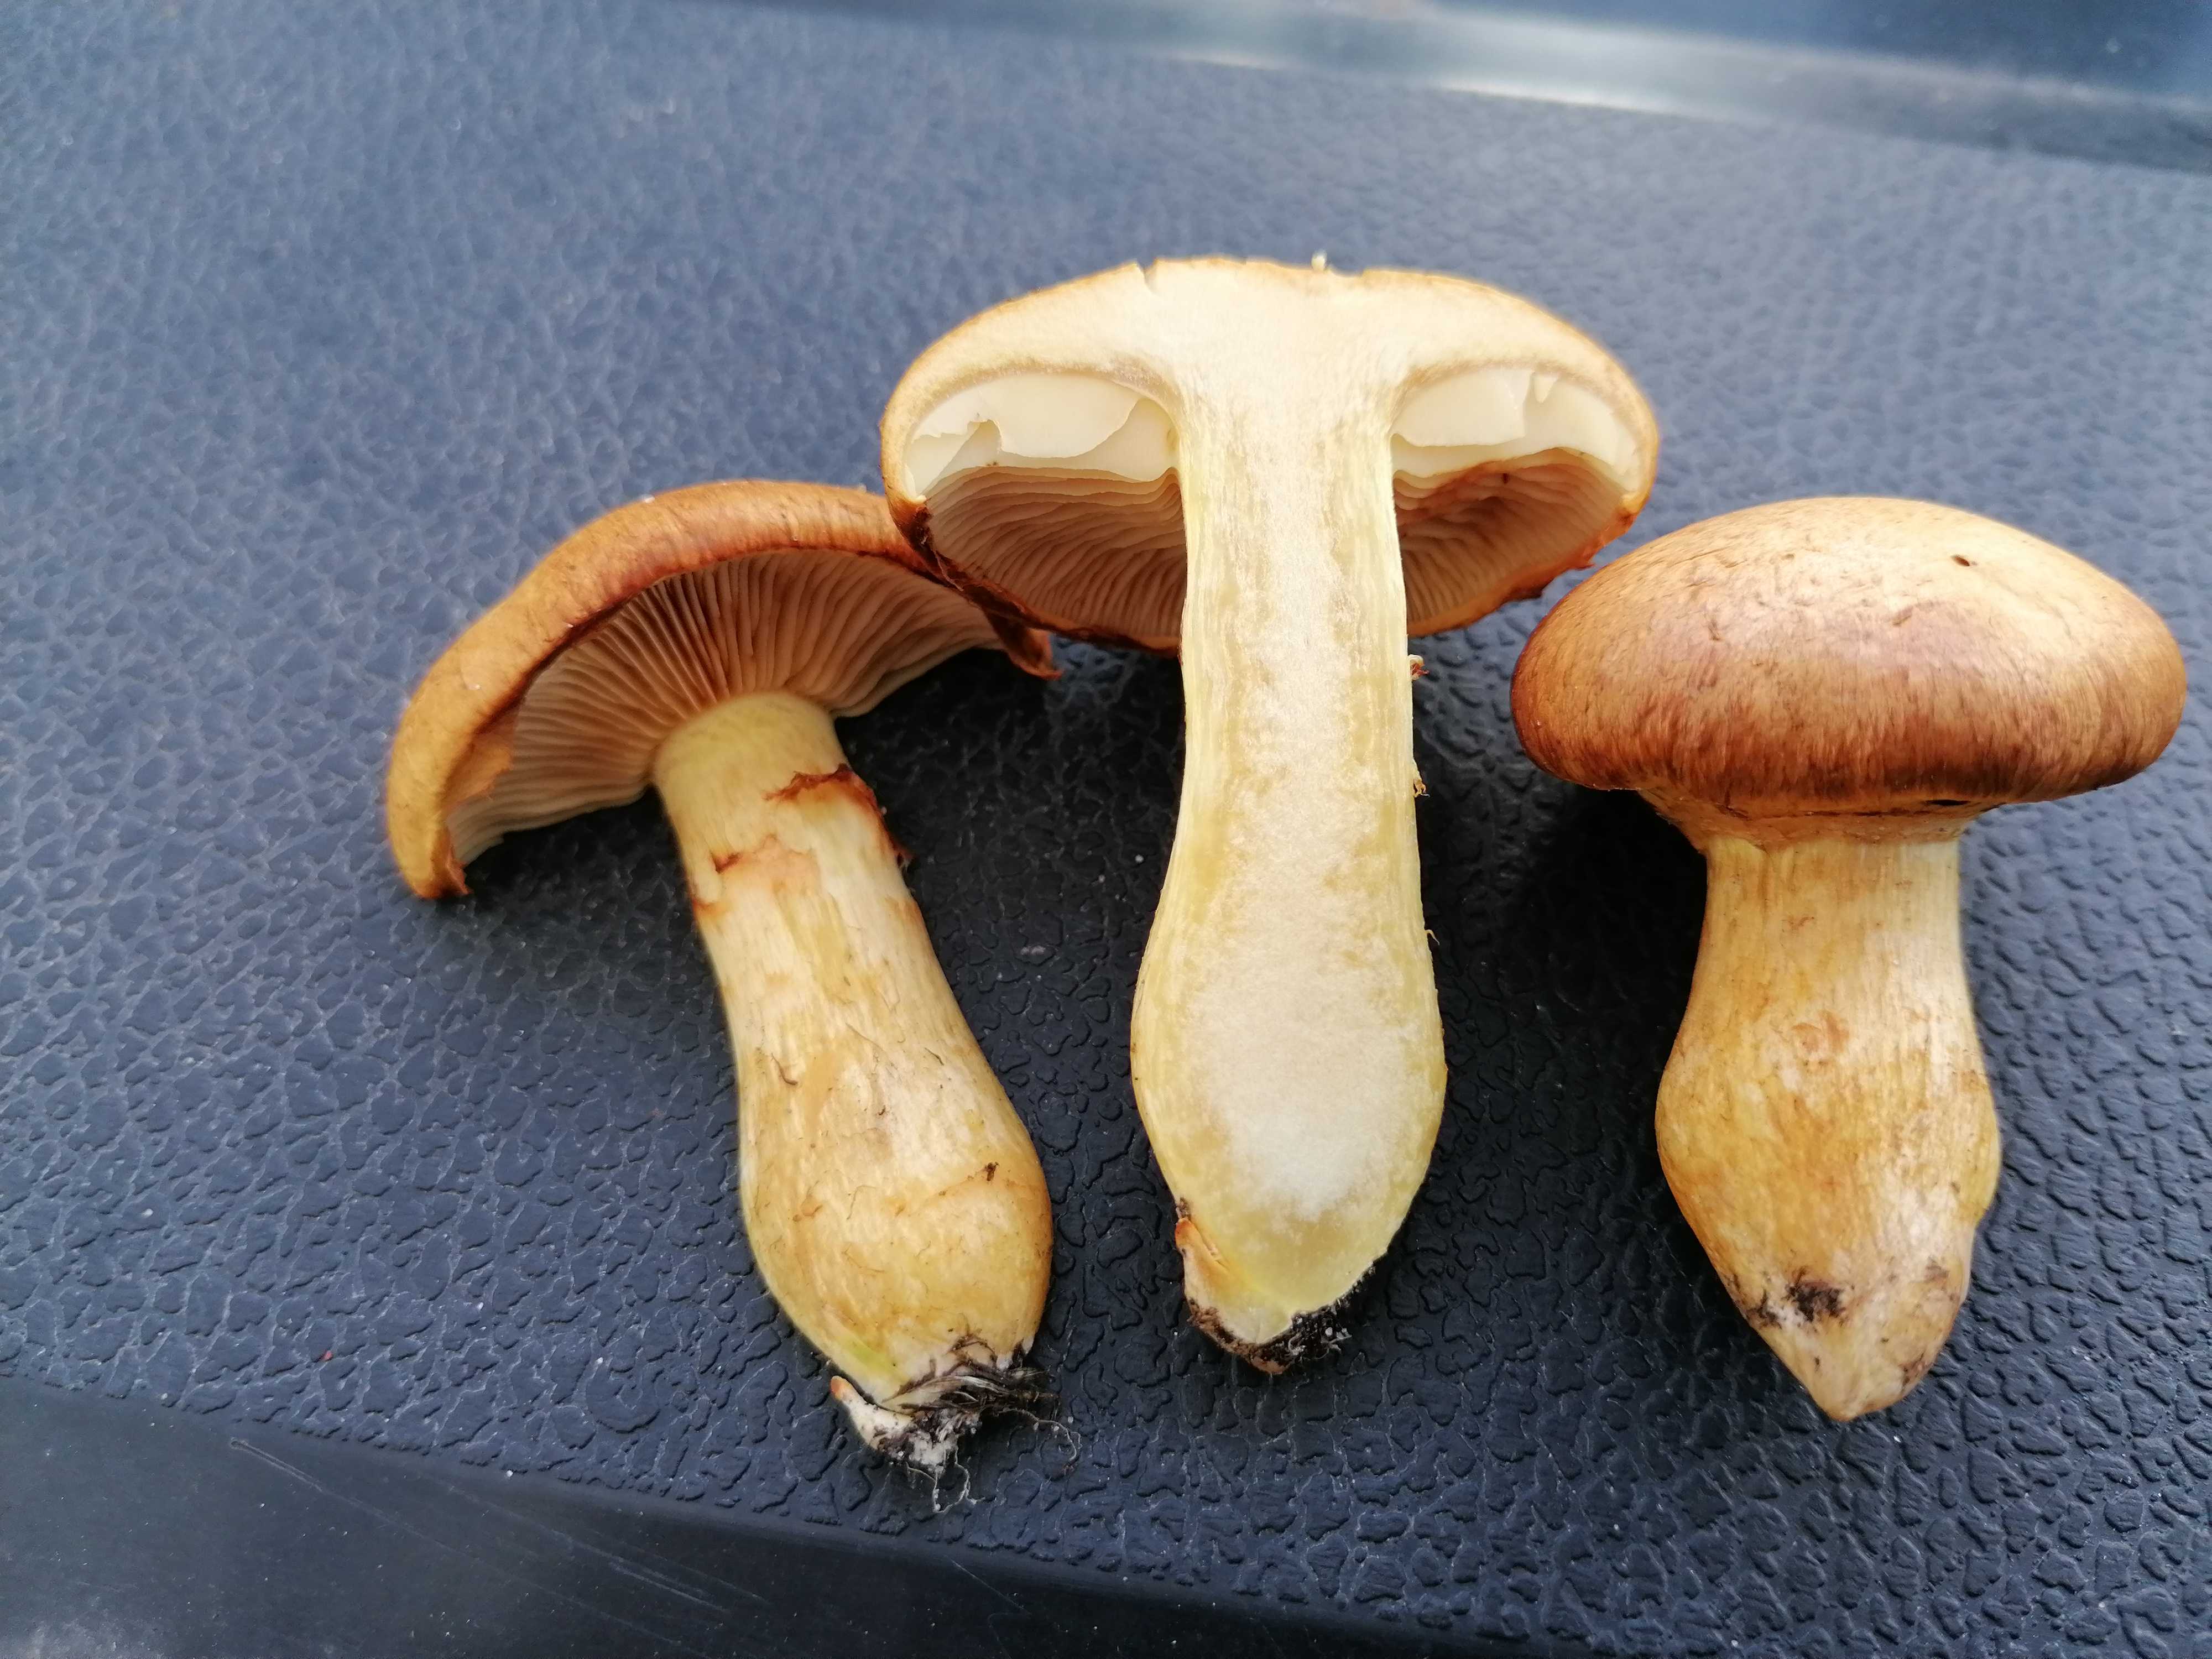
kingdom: Fungi
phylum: Basidiomycota
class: Agaricomycetes
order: Agaricales
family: Hymenogastraceae
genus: Gymnopilus
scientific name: Gymnopilus spectabilis
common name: fibret flammehat
